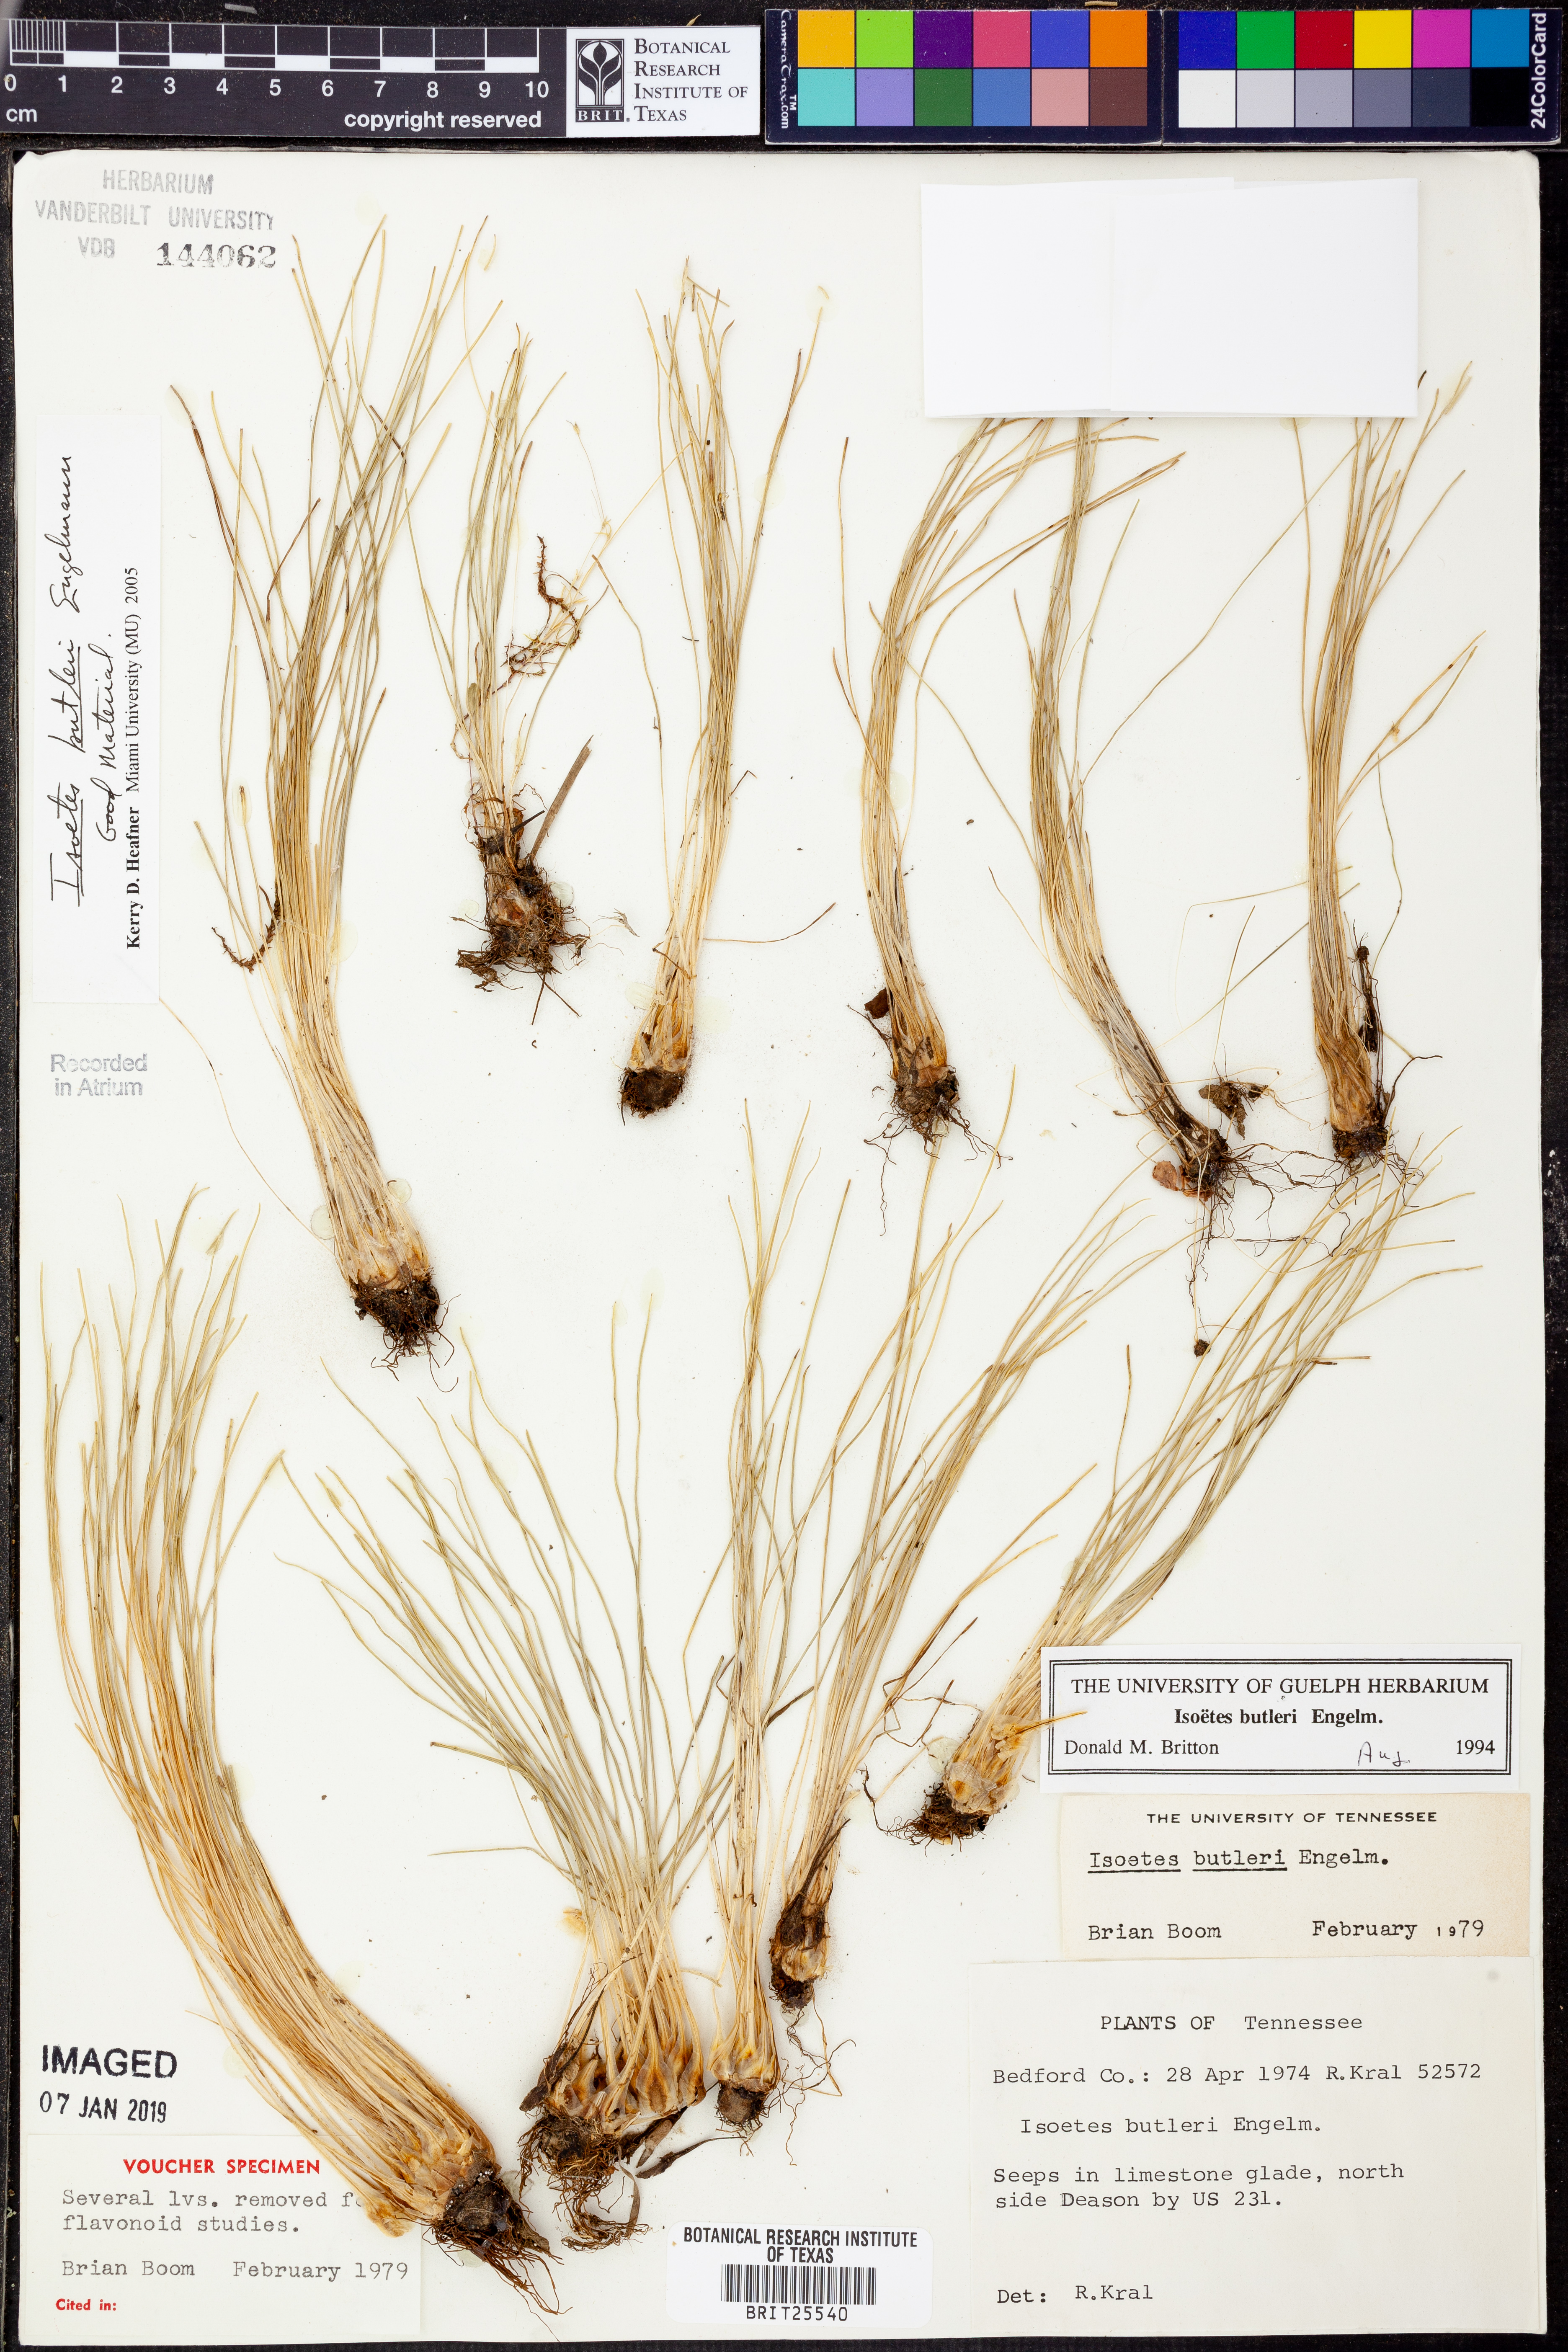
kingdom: Plantae
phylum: Tracheophyta
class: Lycopodiopsida
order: Isoetales
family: Isoetaceae
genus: Isoetes
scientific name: Isoetes butleri
